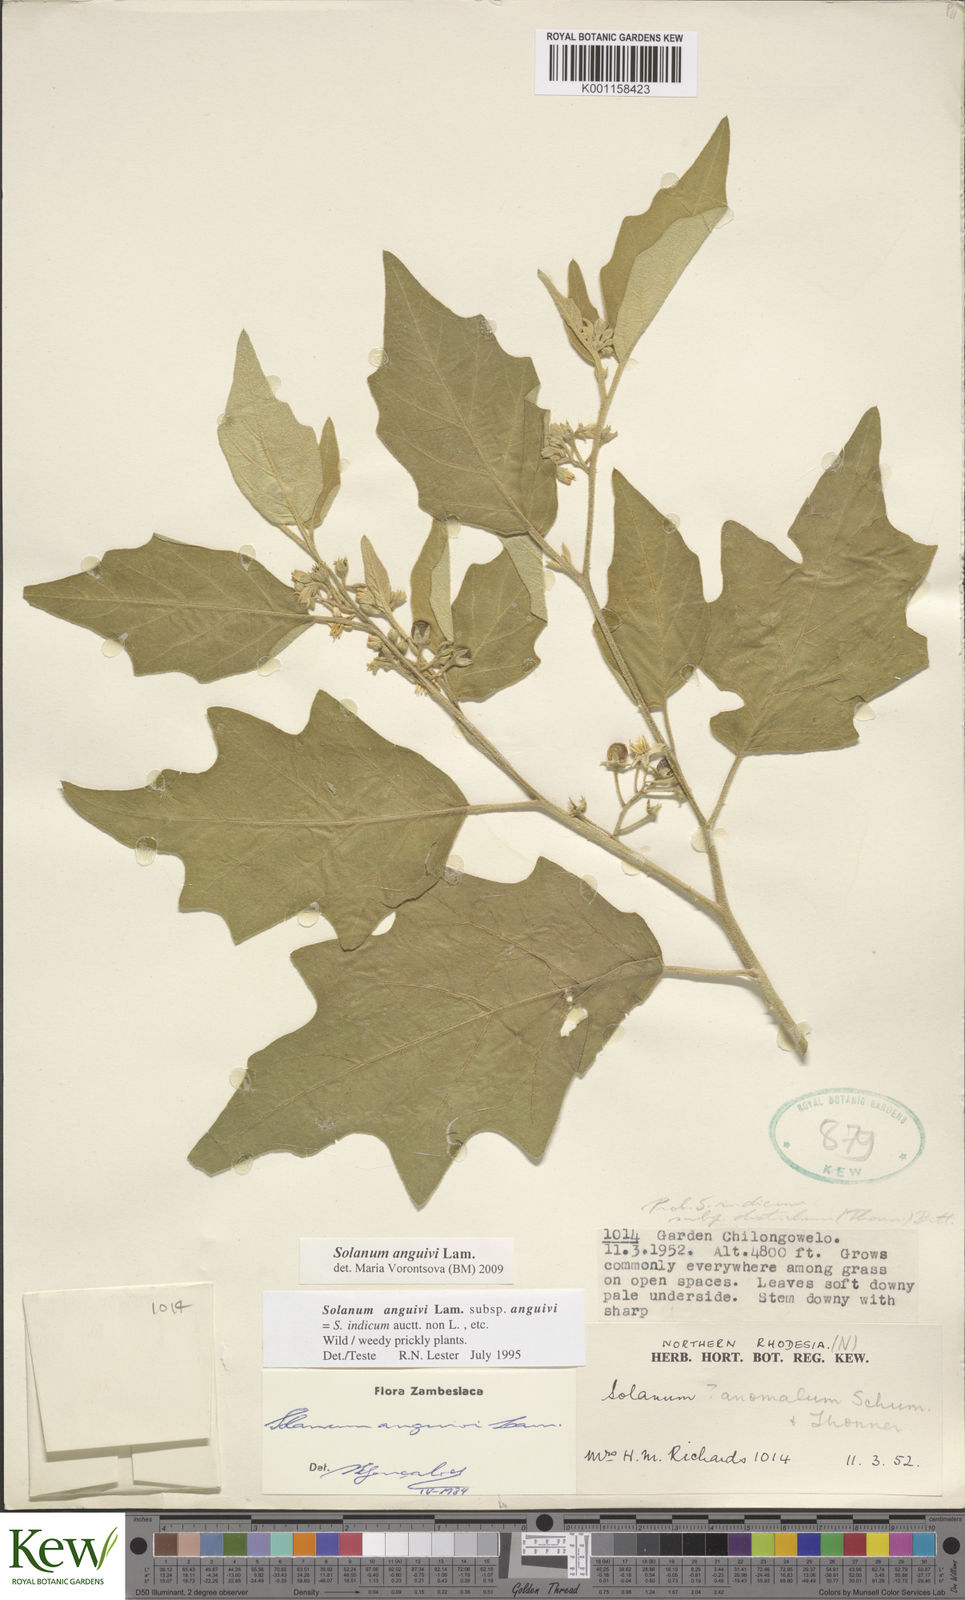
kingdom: Plantae
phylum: Tracheophyta
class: Magnoliopsida
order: Solanales
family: Solanaceae
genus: Solanum
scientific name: Solanum anguivi
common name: Forest bitterberry
